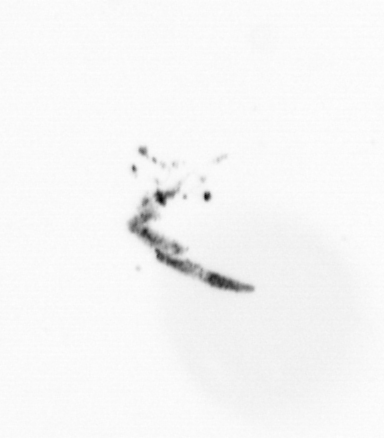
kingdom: Chromista
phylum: Ochrophyta
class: Bacillariophyceae
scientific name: Bacillariophyceae
